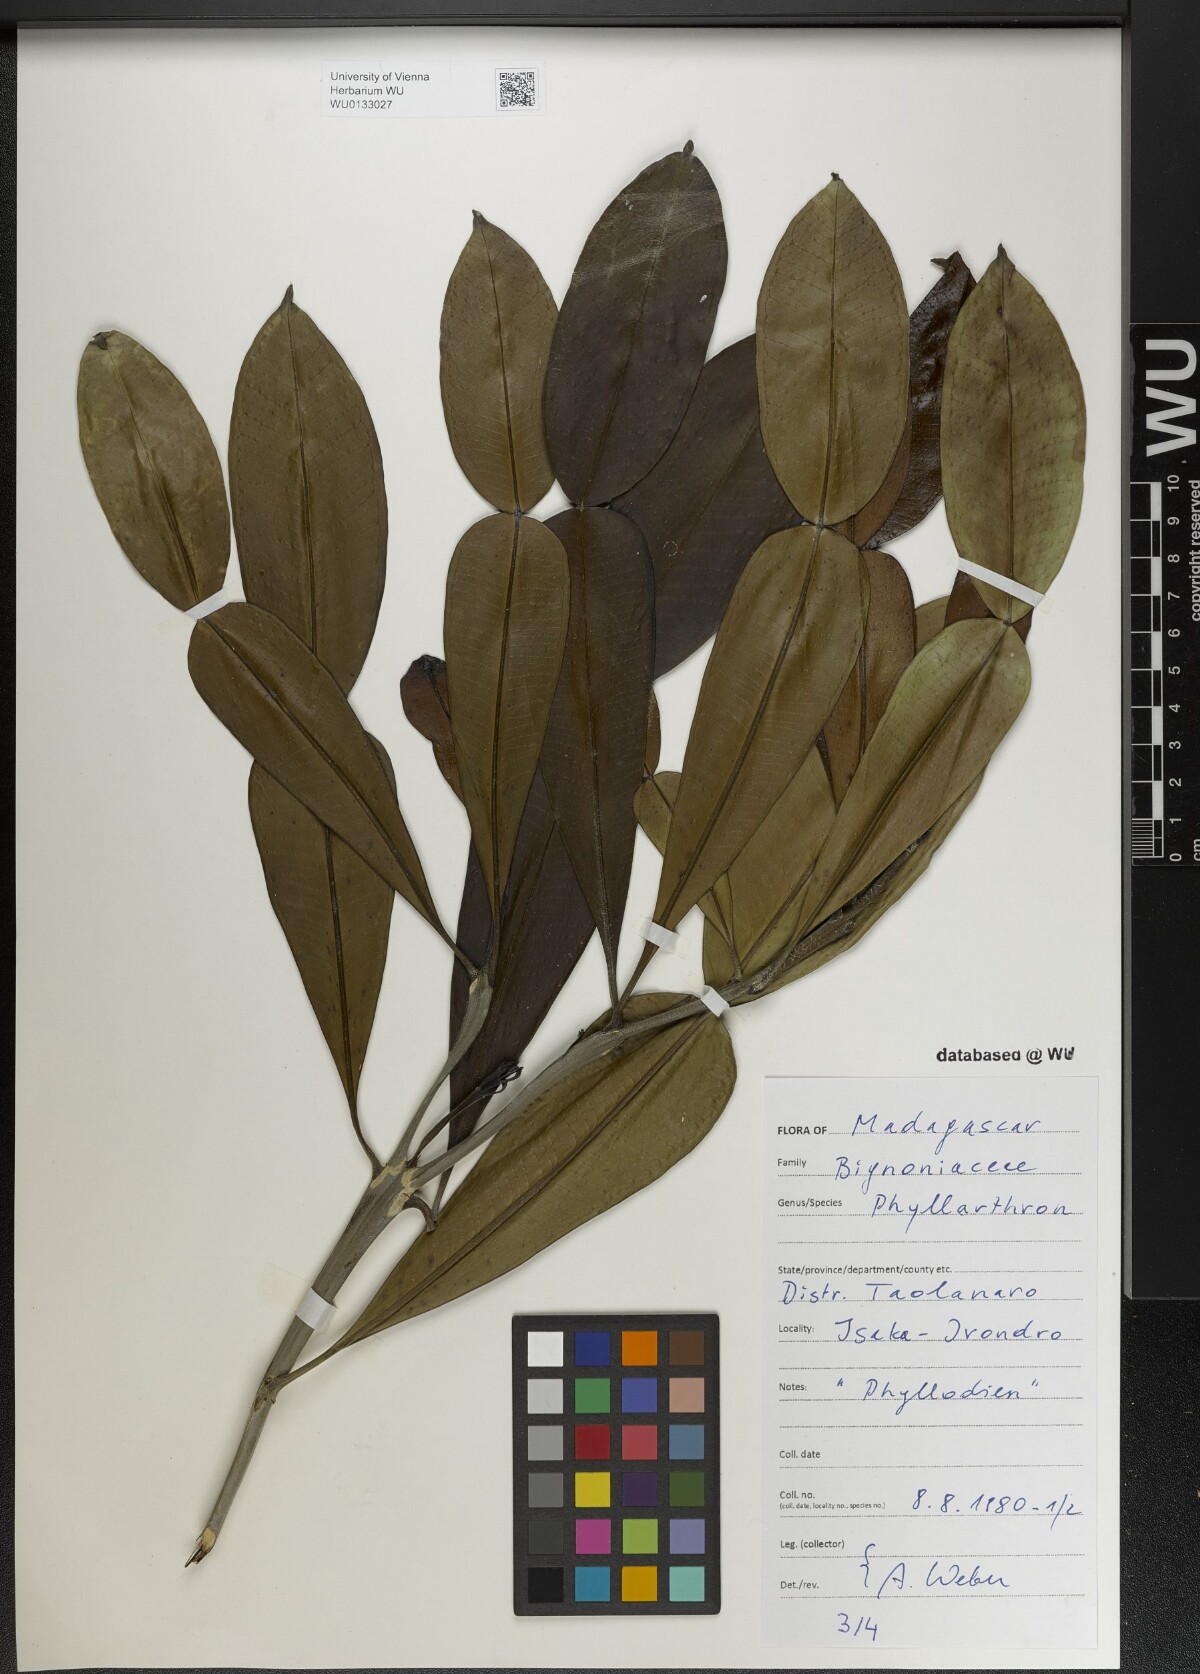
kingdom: Plantae
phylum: Tracheophyta
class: Magnoliopsida
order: Lamiales
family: Bignoniaceae
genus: Phyllarthron
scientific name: Phyllarthron
